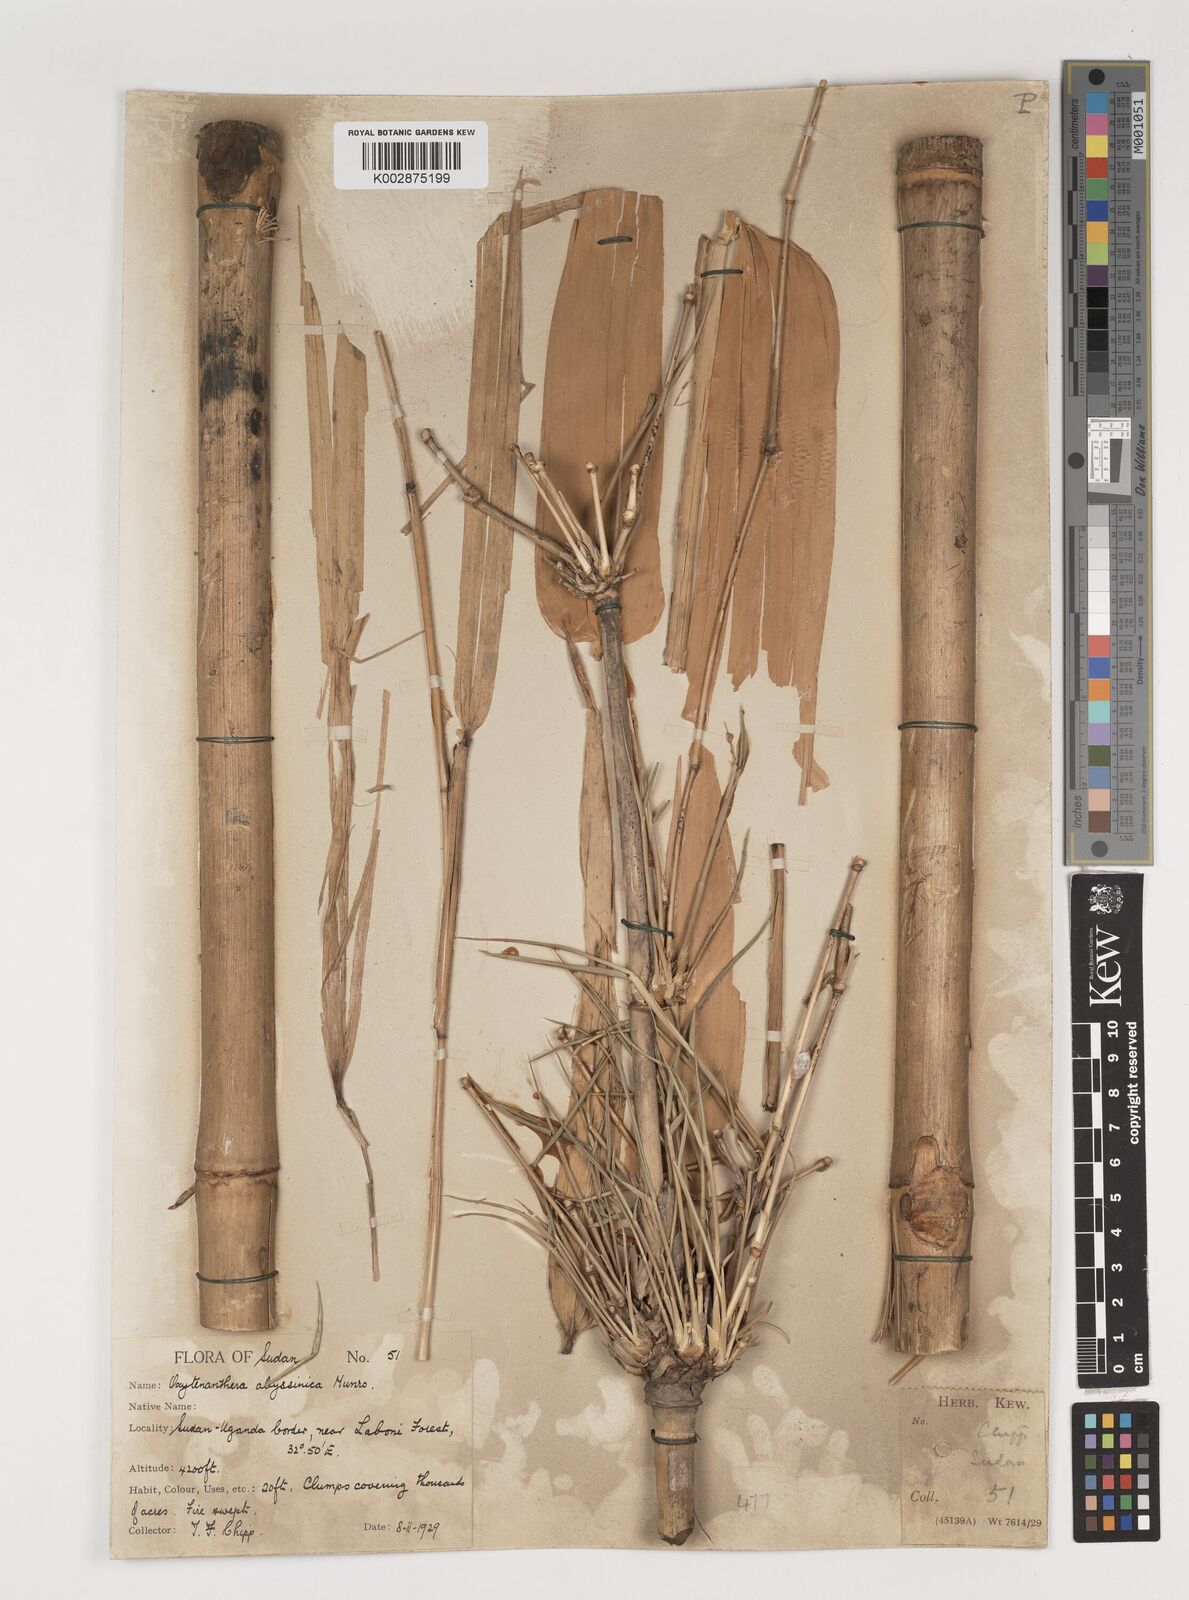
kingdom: Plantae
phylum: Tracheophyta
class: Liliopsida
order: Poales
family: Poaceae
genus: Oxytenanthera
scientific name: Oxytenanthera abyssinica
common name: Wine bamboo
